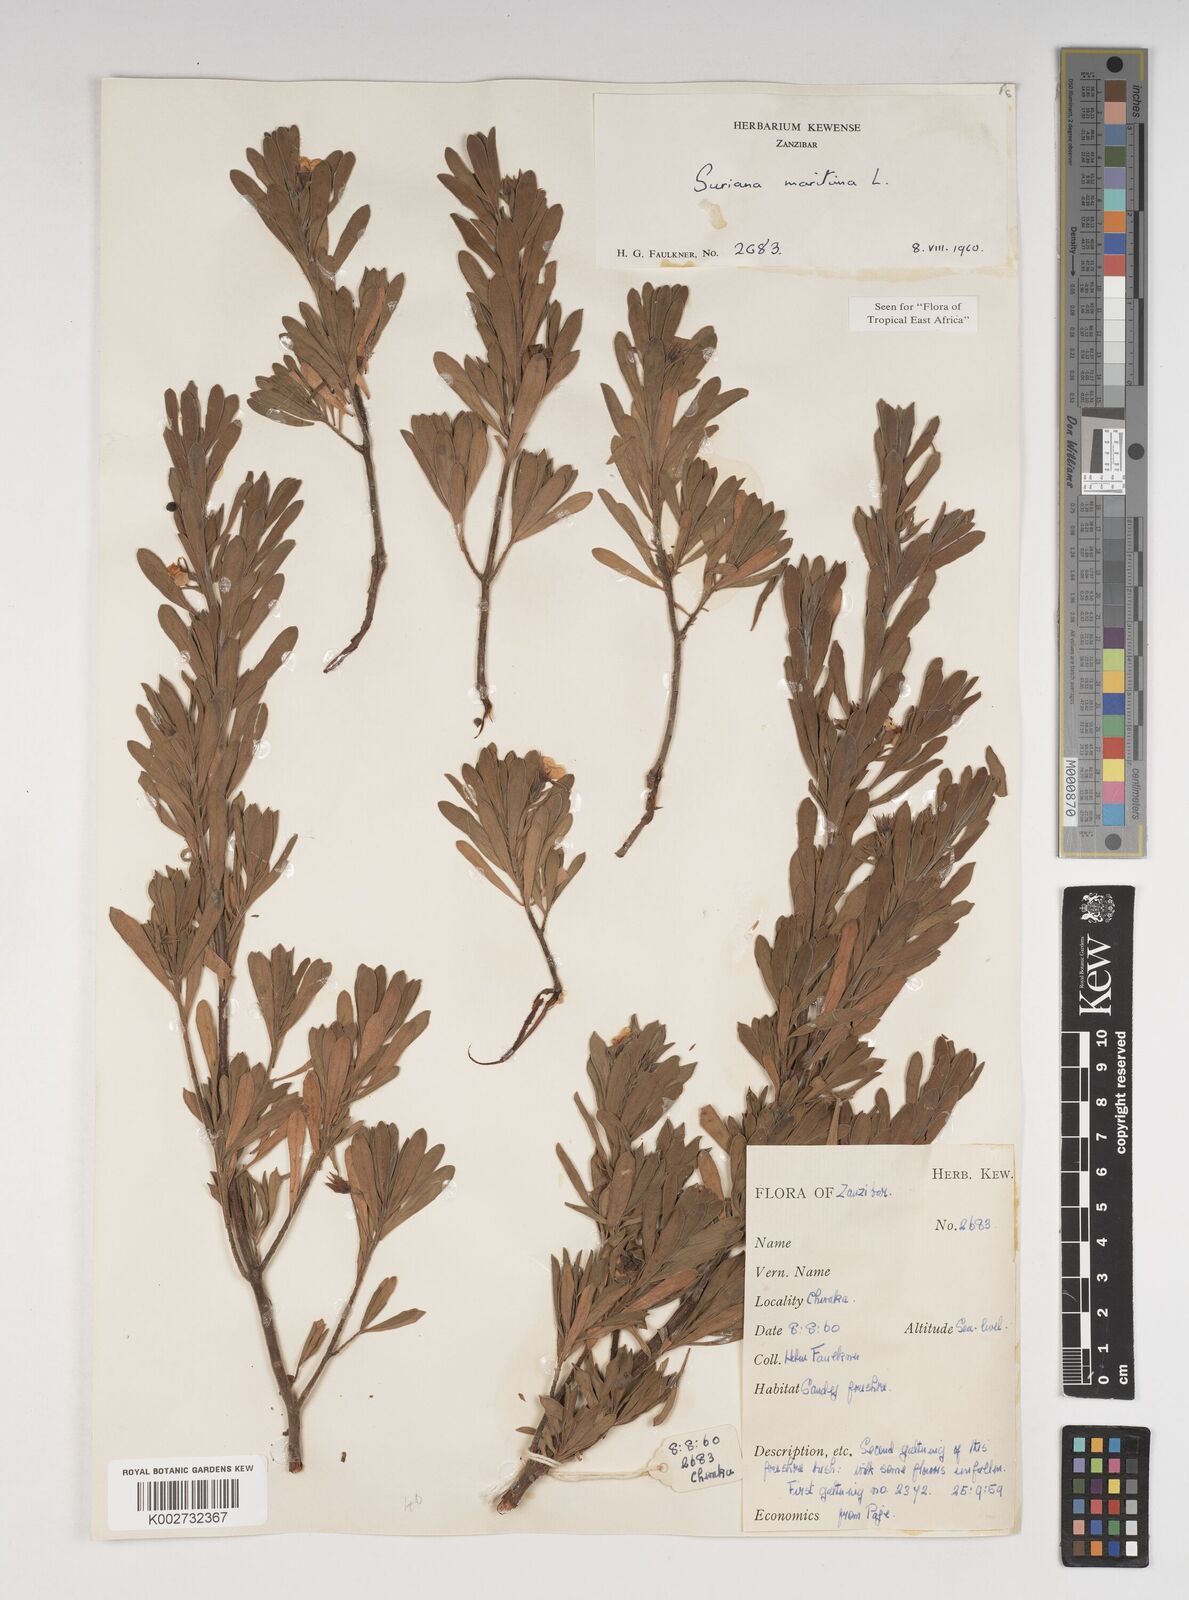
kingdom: Plantae
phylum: Tracheophyta
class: Magnoliopsida
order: Fabales
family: Surianaceae
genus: Suriana
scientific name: Suriana maritima
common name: Bay-cedar
